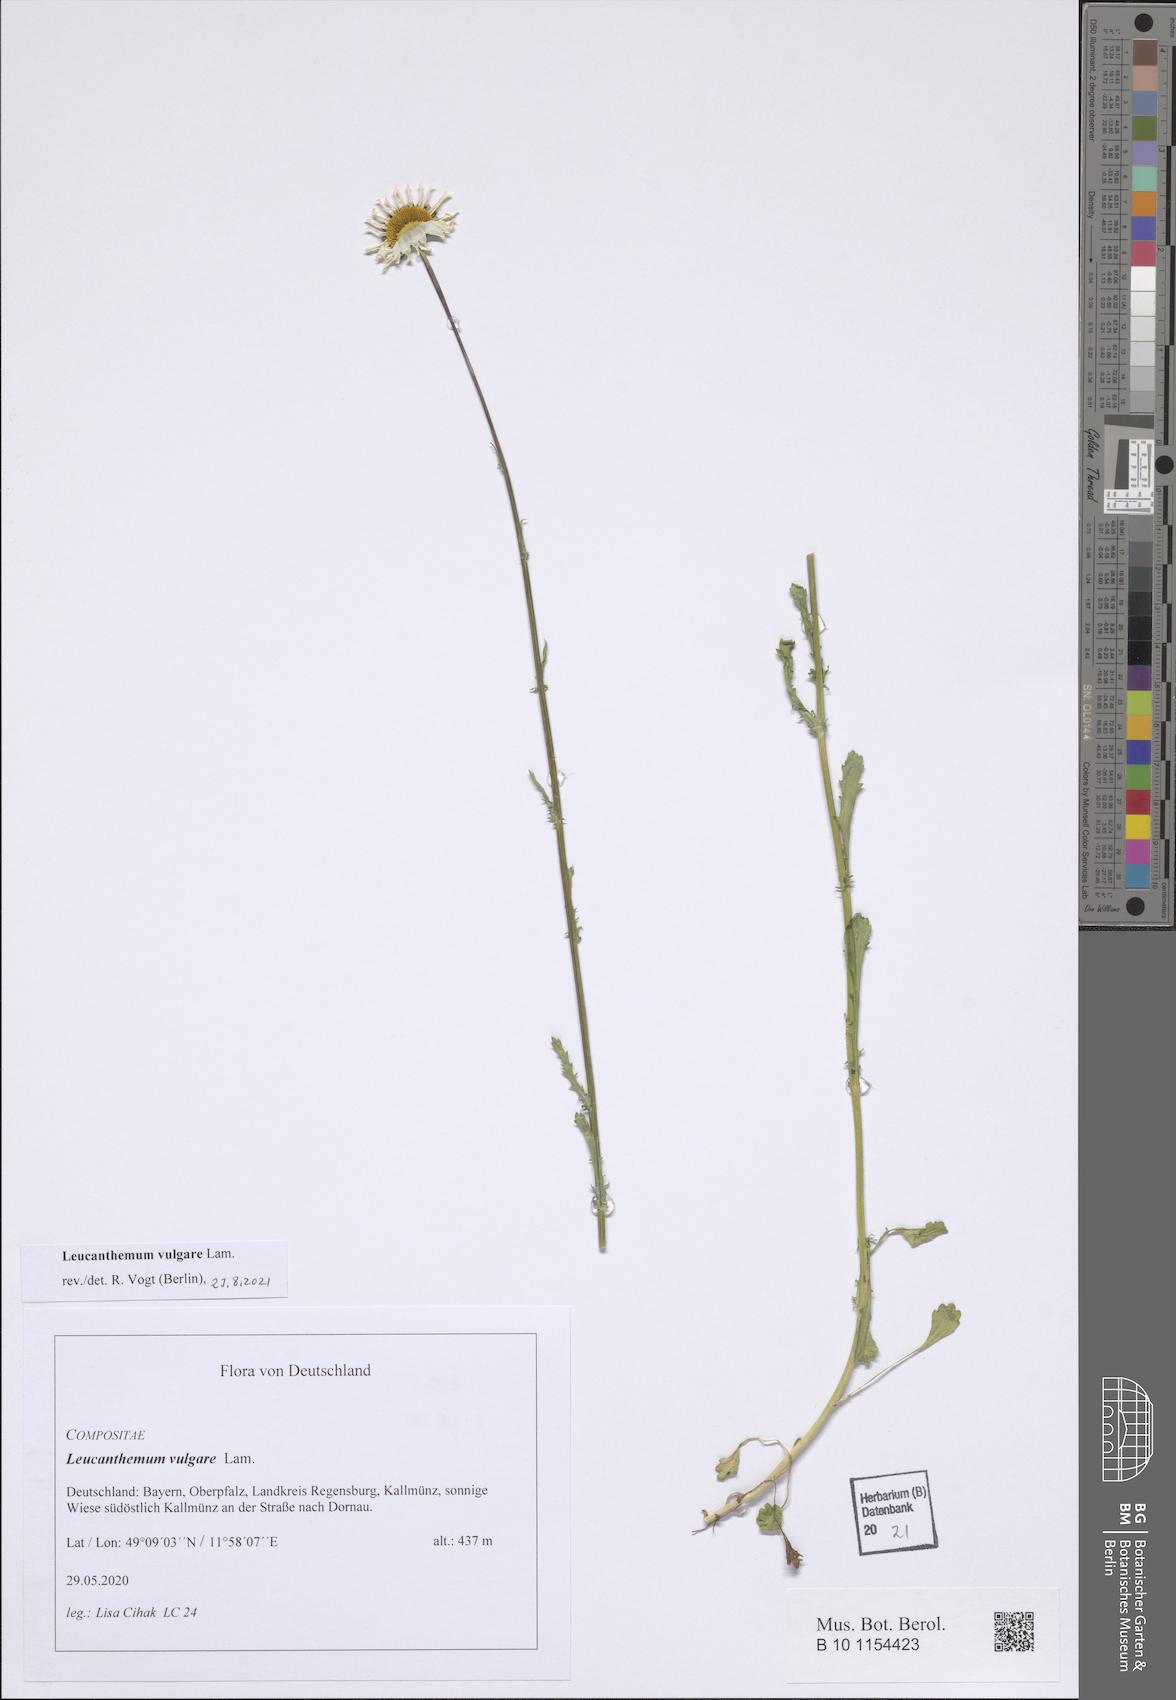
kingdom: Plantae
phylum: Tracheophyta
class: Magnoliopsida
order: Asterales
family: Asteraceae
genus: Leucanthemum
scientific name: Leucanthemum vulgare
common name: Oxeye daisy
